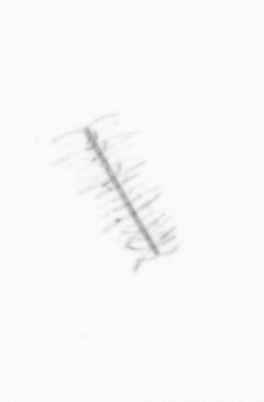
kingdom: Chromista
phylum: Ochrophyta
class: Bacillariophyceae
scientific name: Bacillariophyceae
